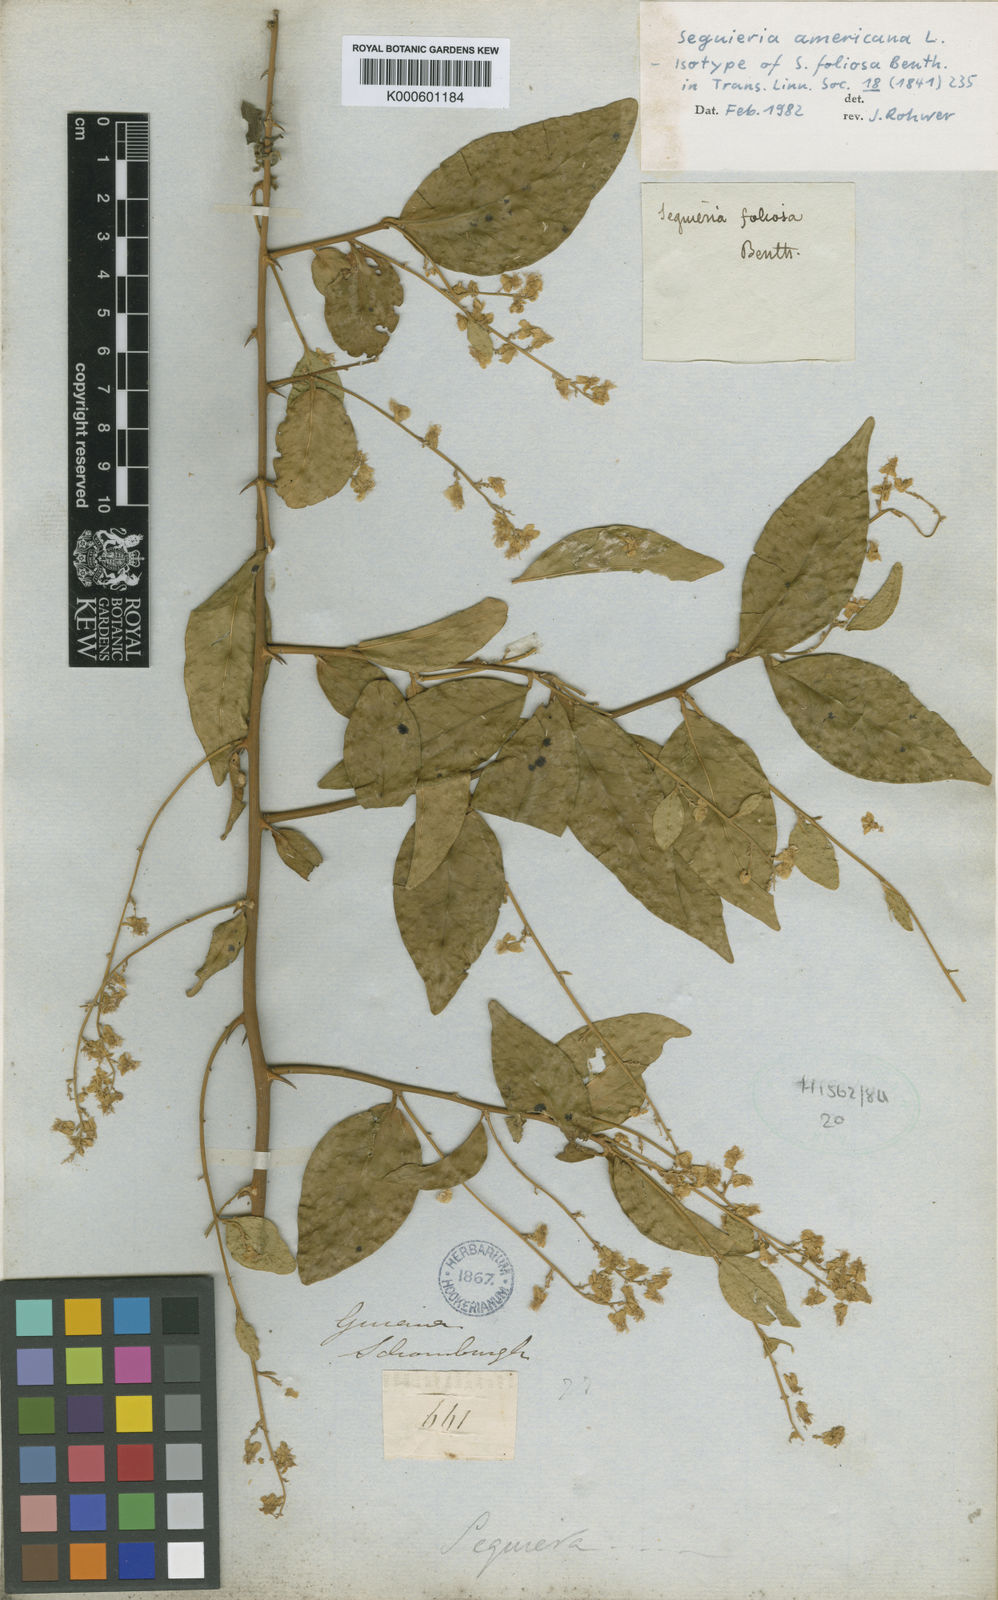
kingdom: Plantae
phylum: Tracheophyta
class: Magnoliopsida
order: Caryophyllales
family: Phytolaccaceae
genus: Seguieria
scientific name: Seguieria americana
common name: American seguieria
